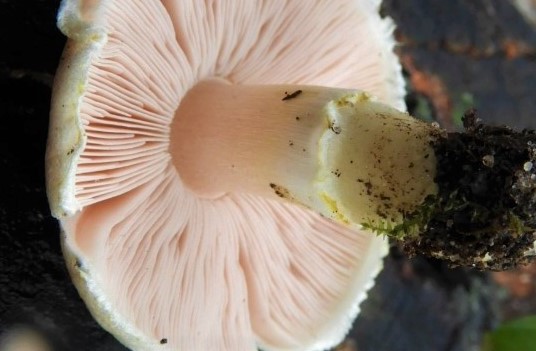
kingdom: Fungi
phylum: Basidiomycota
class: Agaricomycetes
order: Agaricales
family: Agaricaceae
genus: Agaricus
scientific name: Agaricus dulcidulus
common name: blegrød champignon
